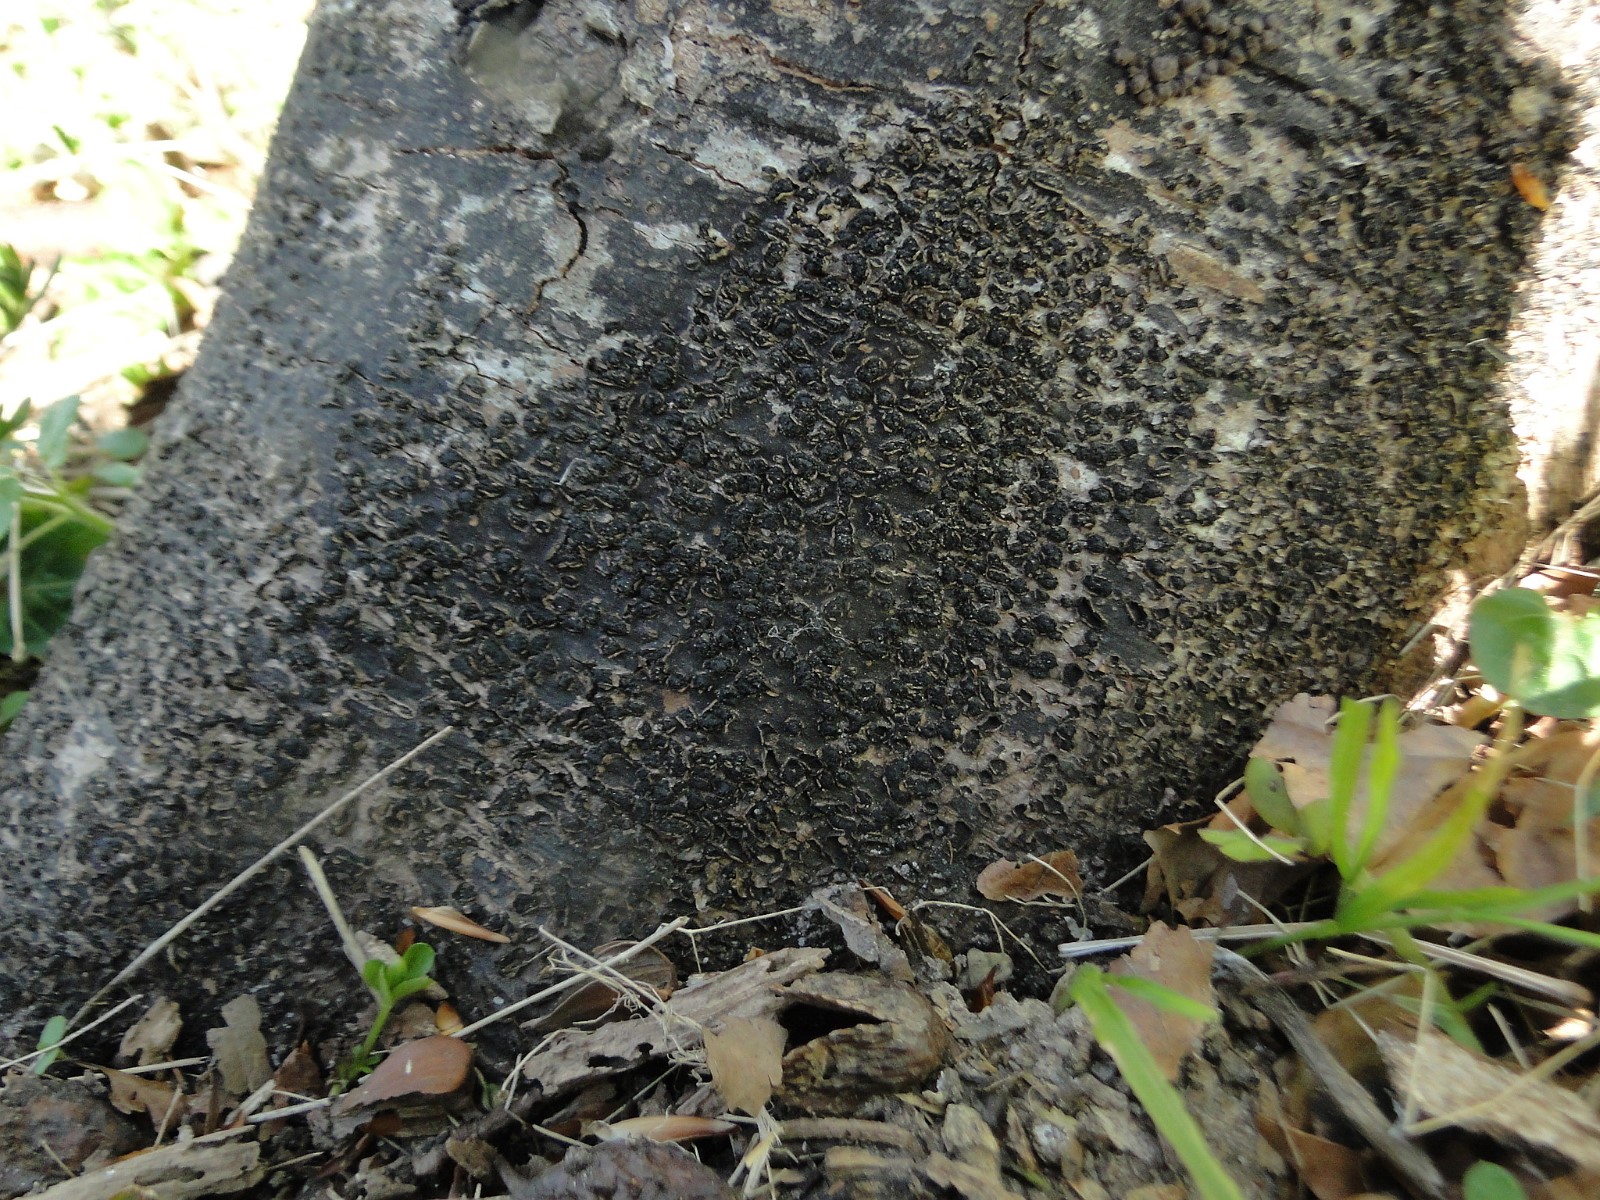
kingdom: Fungi
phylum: Ascomycota
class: Sordariomycetes
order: Xylariales
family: Melogrammataceae
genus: Melogramma
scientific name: Melogramma spiniferum
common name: bøgefod-kulhals
